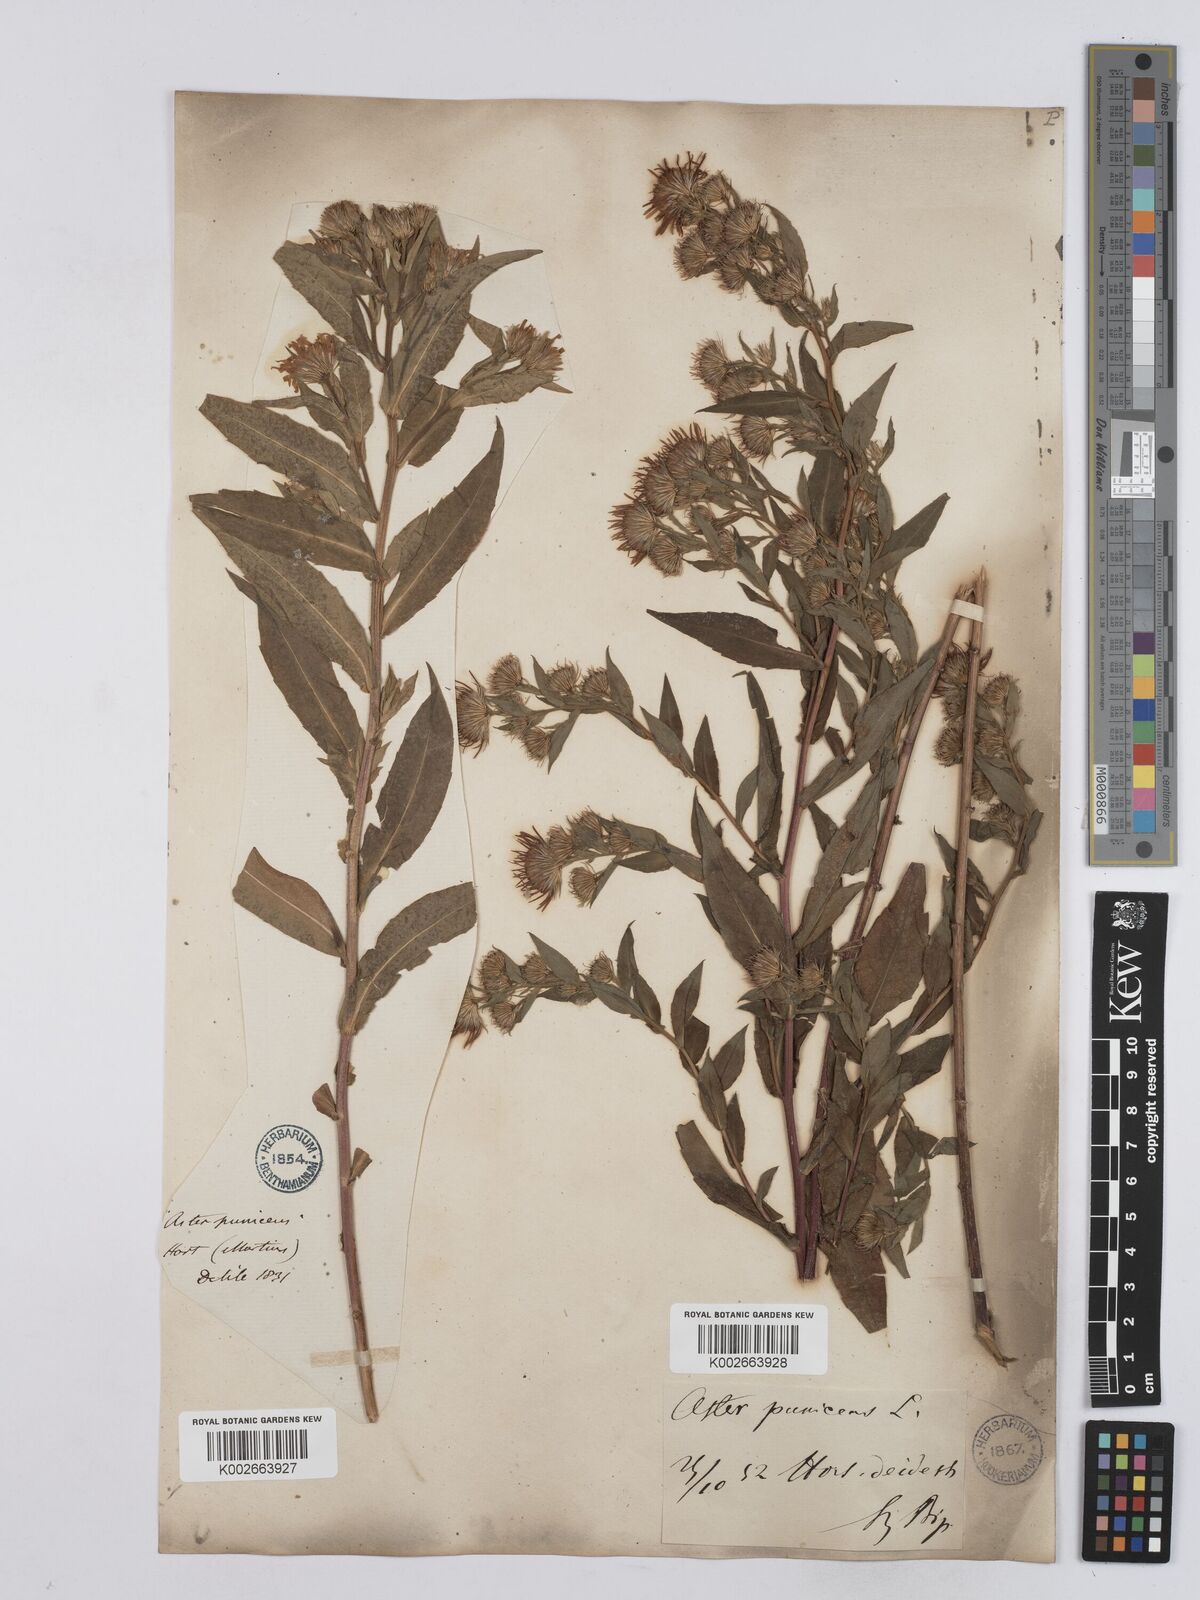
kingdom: Plantae
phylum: Tracheophyta
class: Magnoliopsida
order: Asterales
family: Asteraceae
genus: Symphyotrichum
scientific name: Symphyotrichum puniceum
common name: Bog aster
